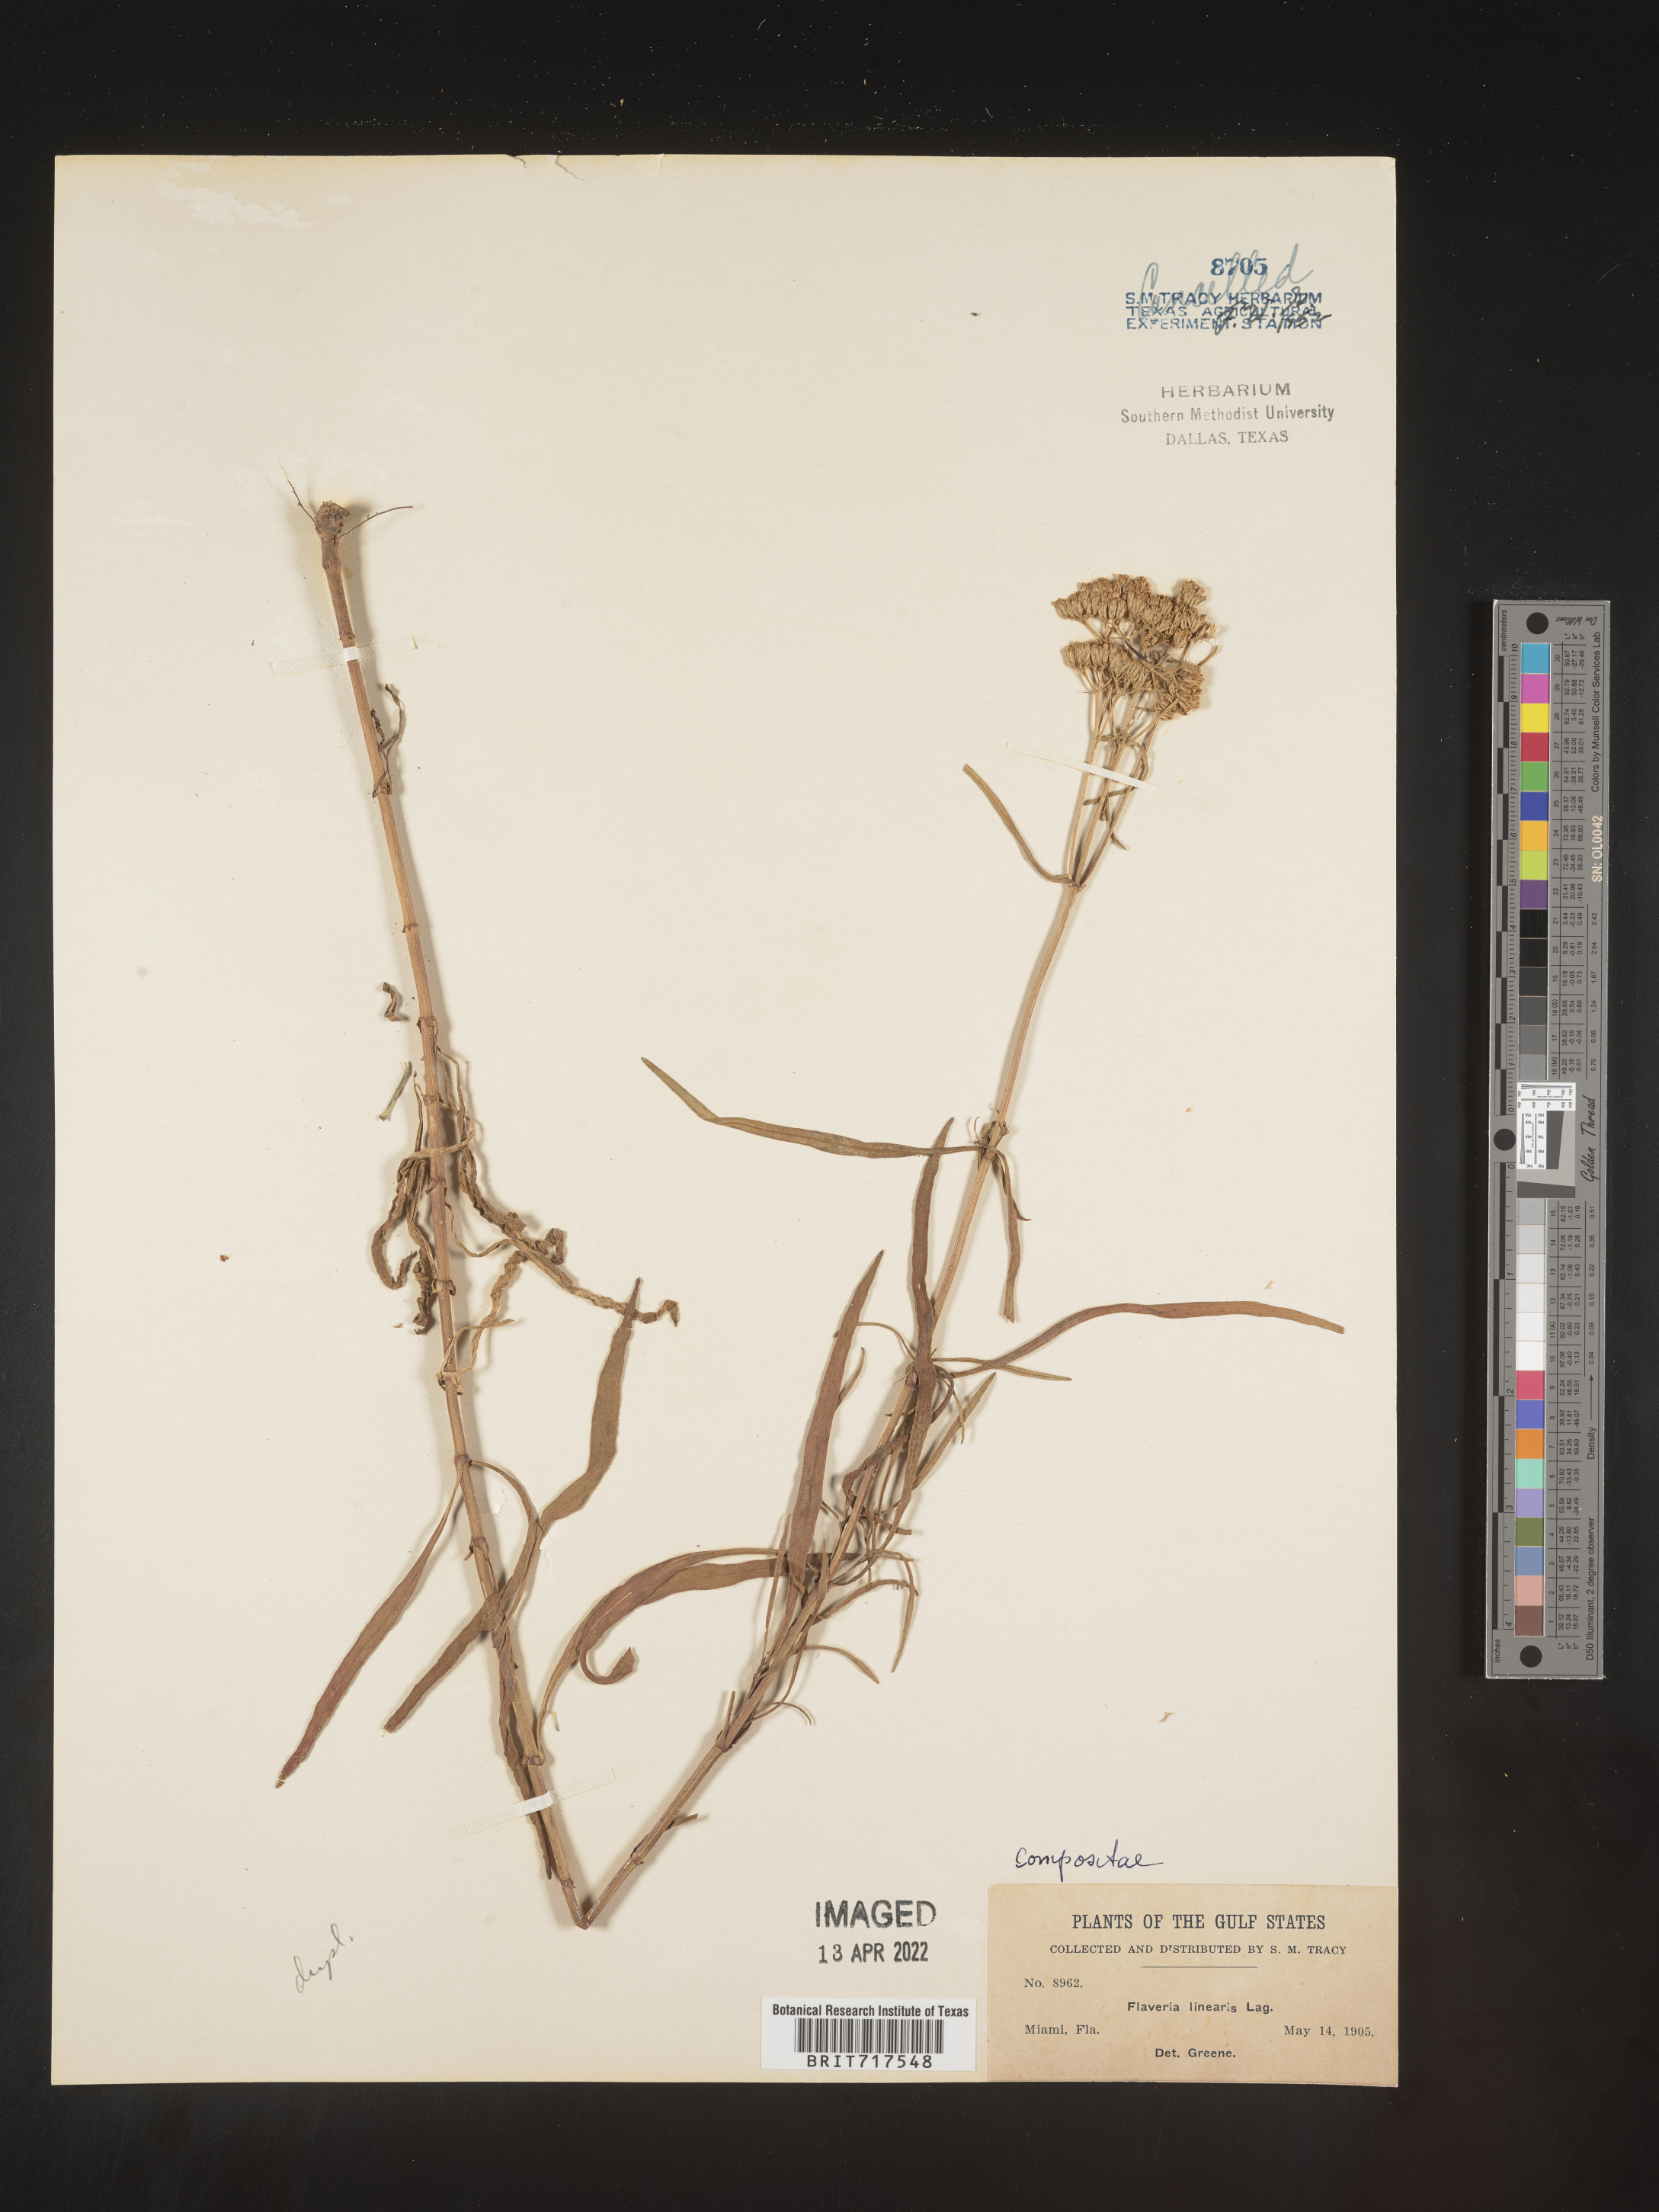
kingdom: Plantae
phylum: Tracheophyta
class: Magnoliopsida
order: Asterales
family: Asteraceae
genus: Flaveria
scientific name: Flaveria linearis
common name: Yellowtop
